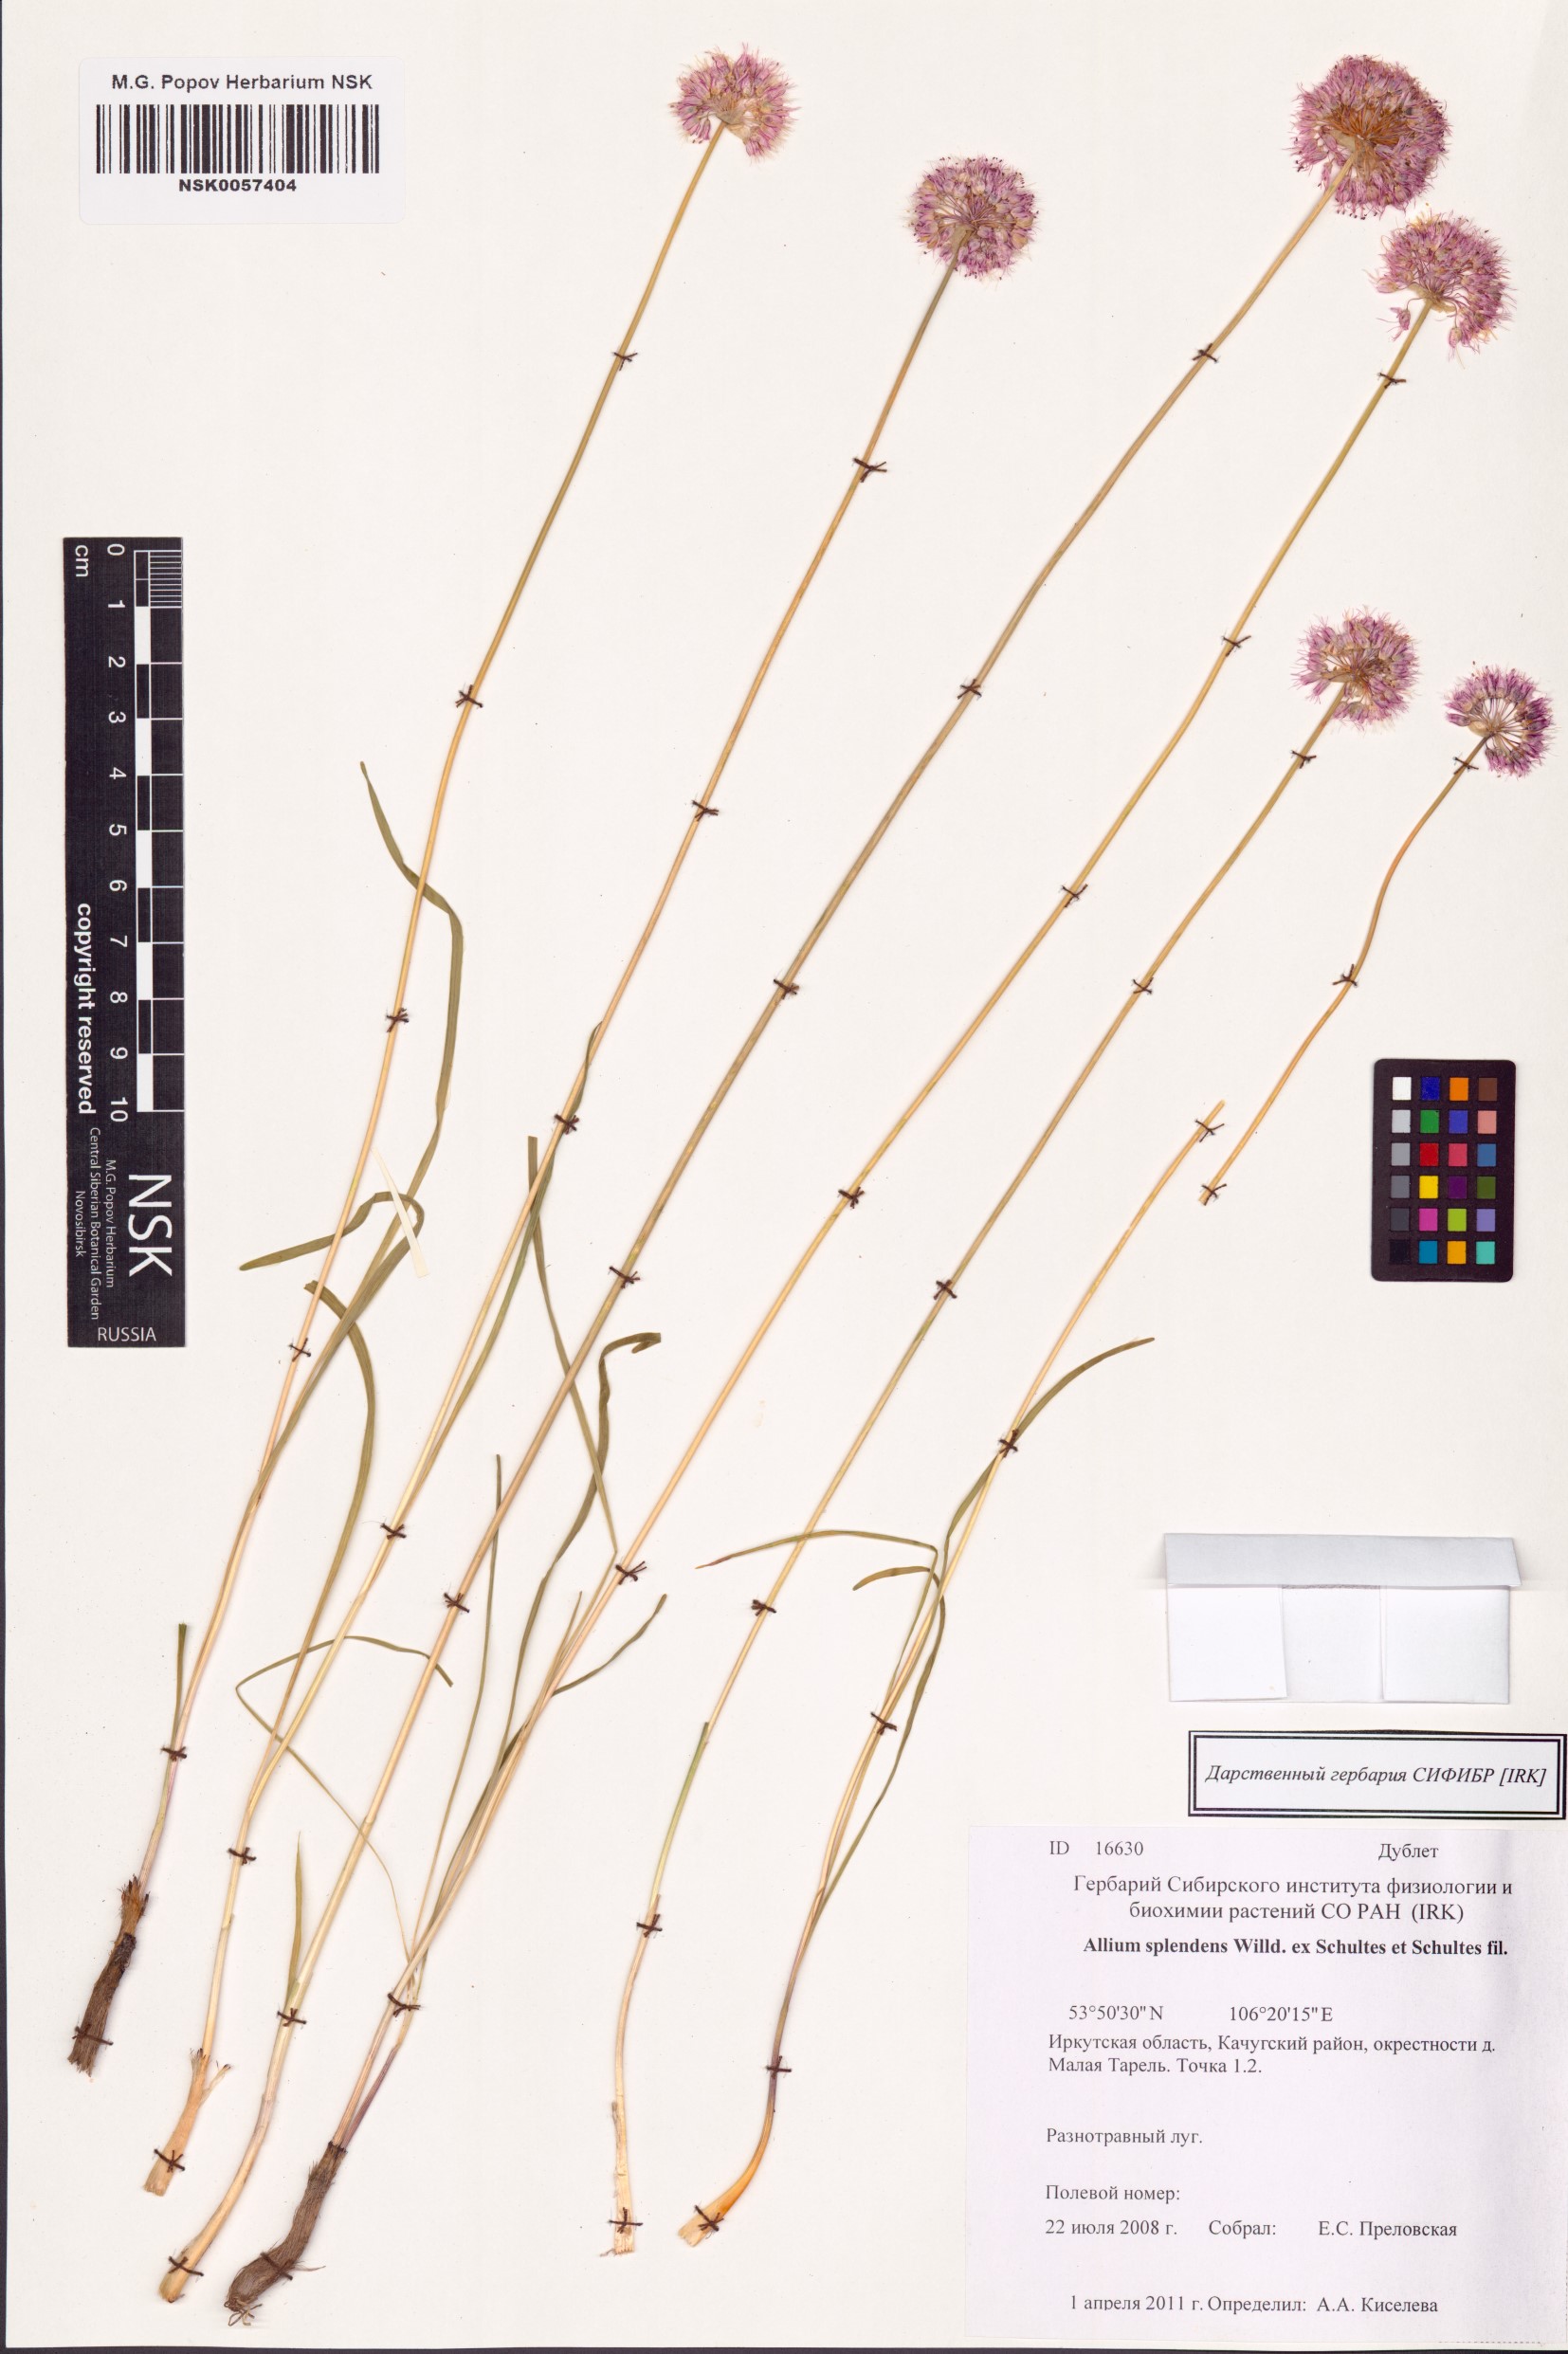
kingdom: Plantae
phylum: Tracheophyta
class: Liliopsida
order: Asparagales
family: Amaryllidaceae
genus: Allium
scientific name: Allium splendens
